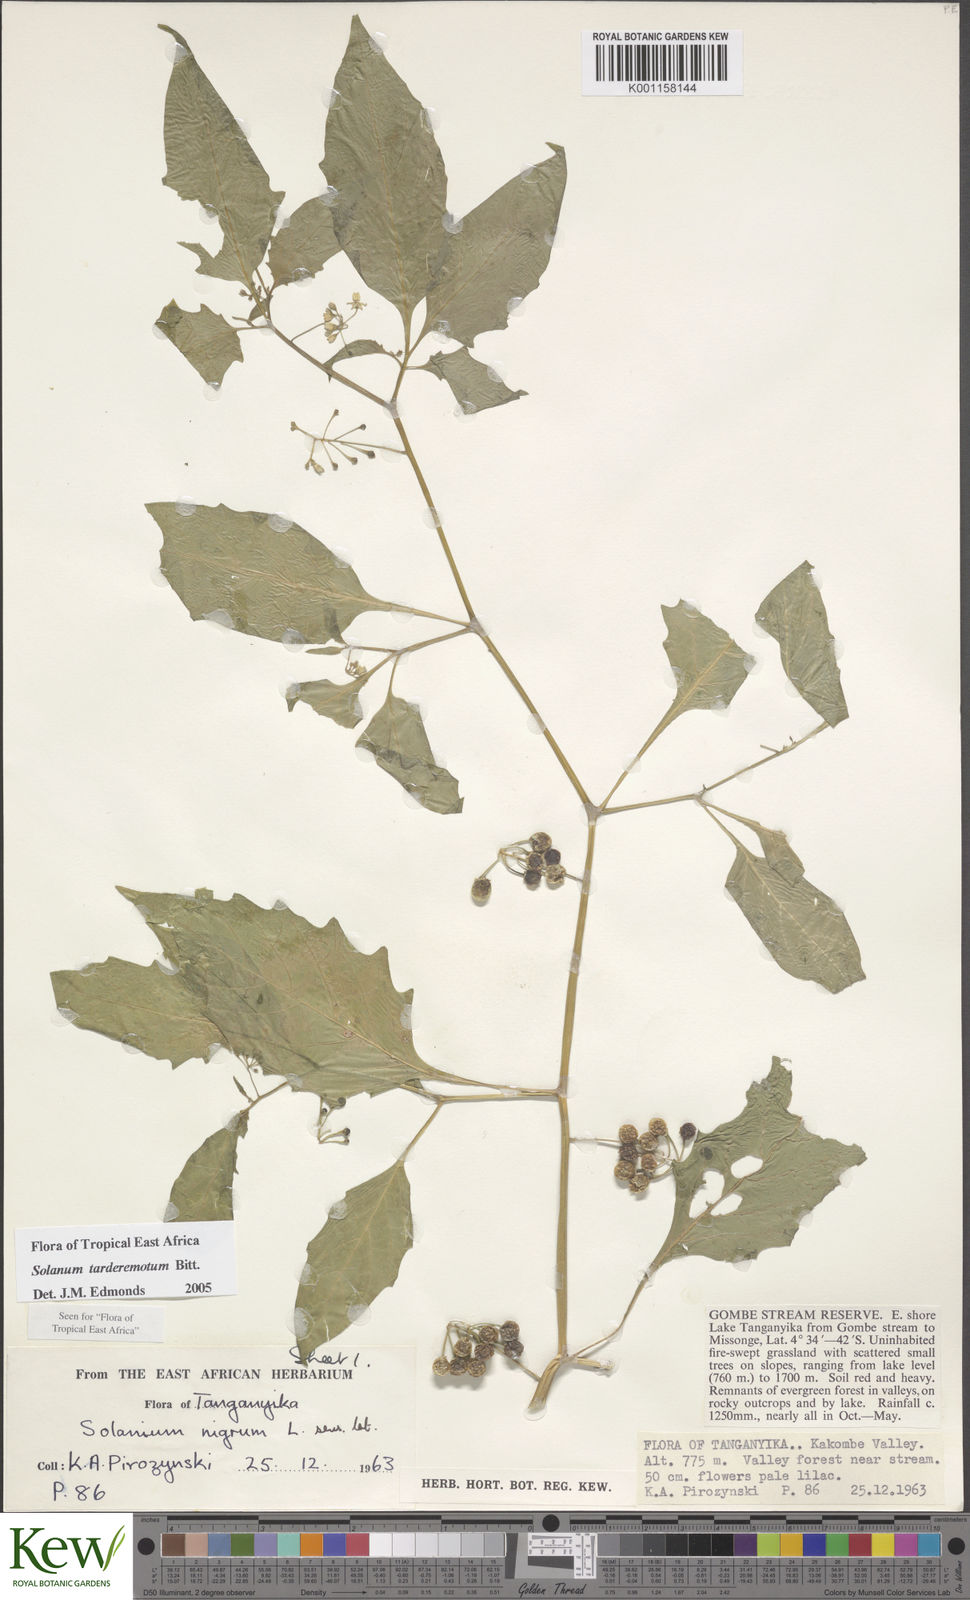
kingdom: Plantae
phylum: Tracheophyta
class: Magnoliopsida
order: Solanales
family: Solanaceae
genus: Solanum
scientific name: Solanum tarderemotum
